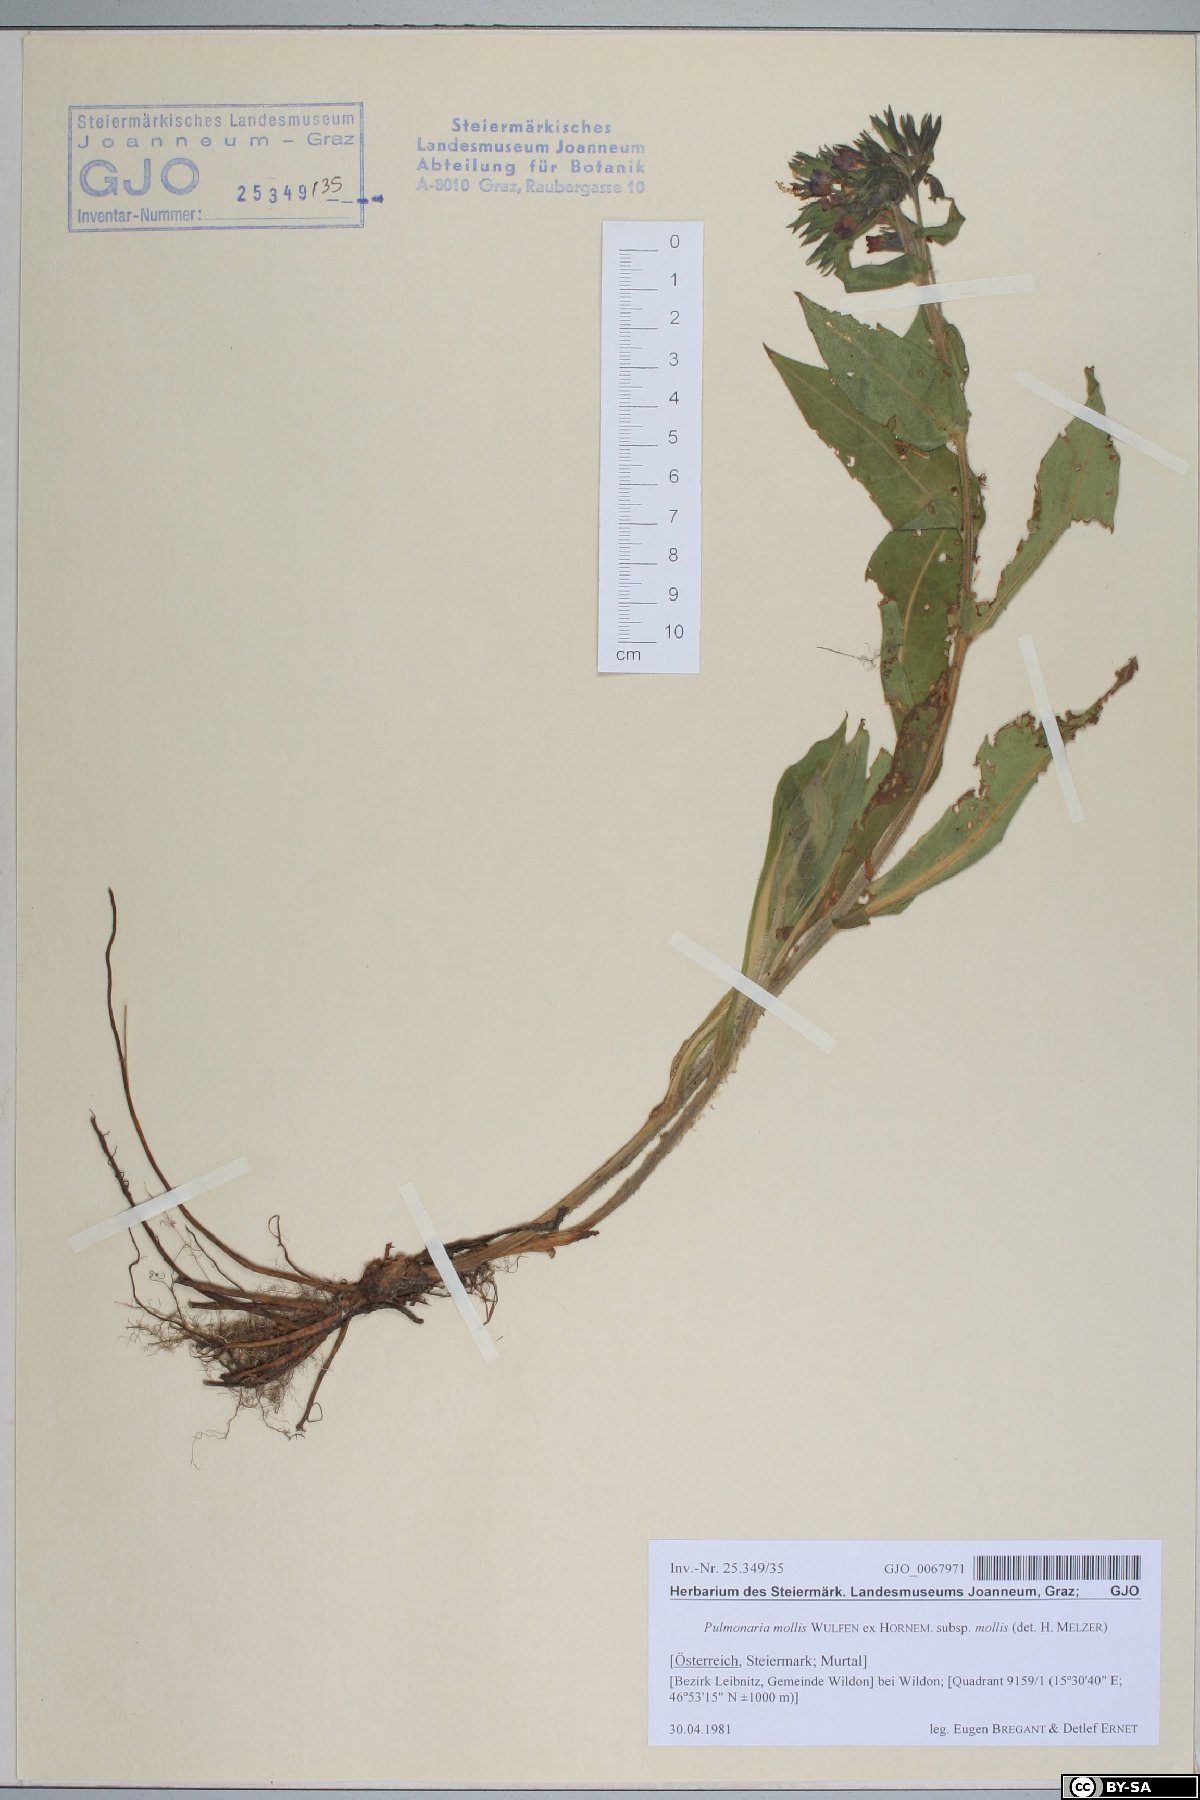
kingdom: Plantae
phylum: Tracheophyta
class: Magnoliopsida
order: Boraginales
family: Boraginaceae
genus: Pulmonaria
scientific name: Pulmonaria mollis
